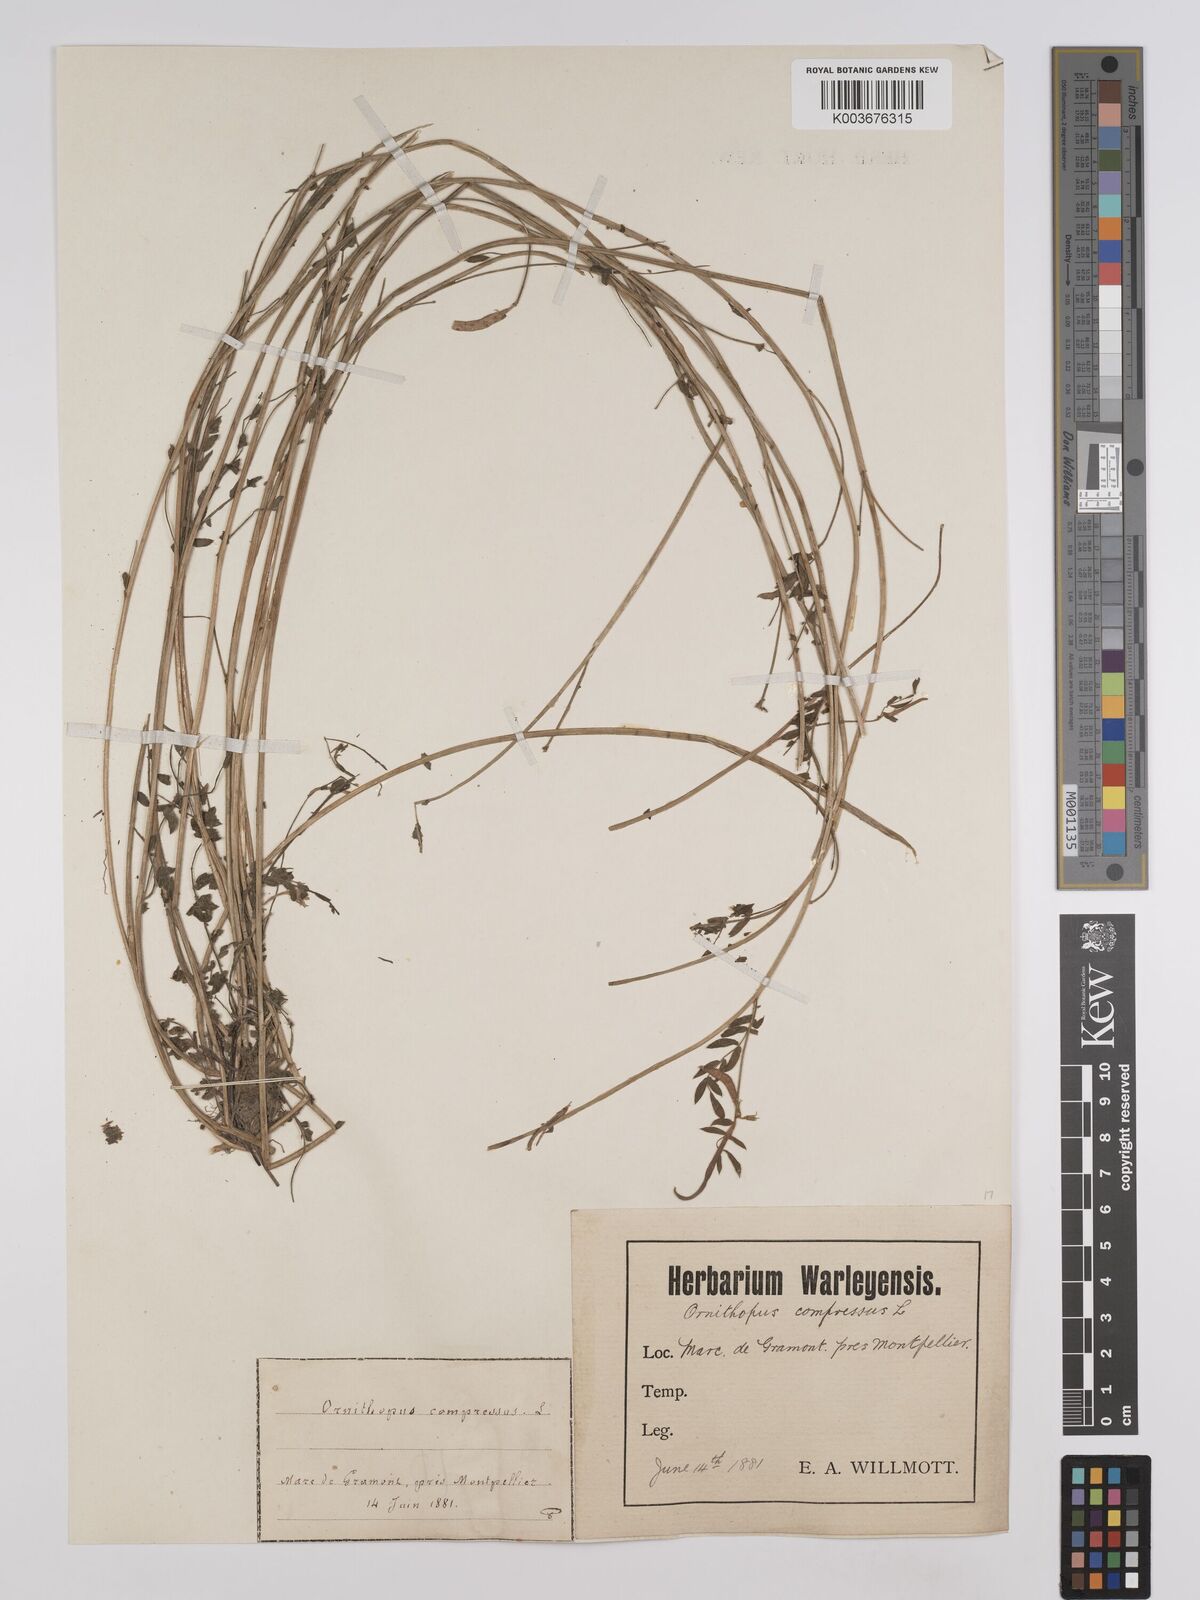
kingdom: Plantae
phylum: Tracheophyta
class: Magnoliopsida
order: Fabales
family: Fabaceae
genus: Ornithopus
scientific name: Ornithopus compressus
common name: Yellow serradella
